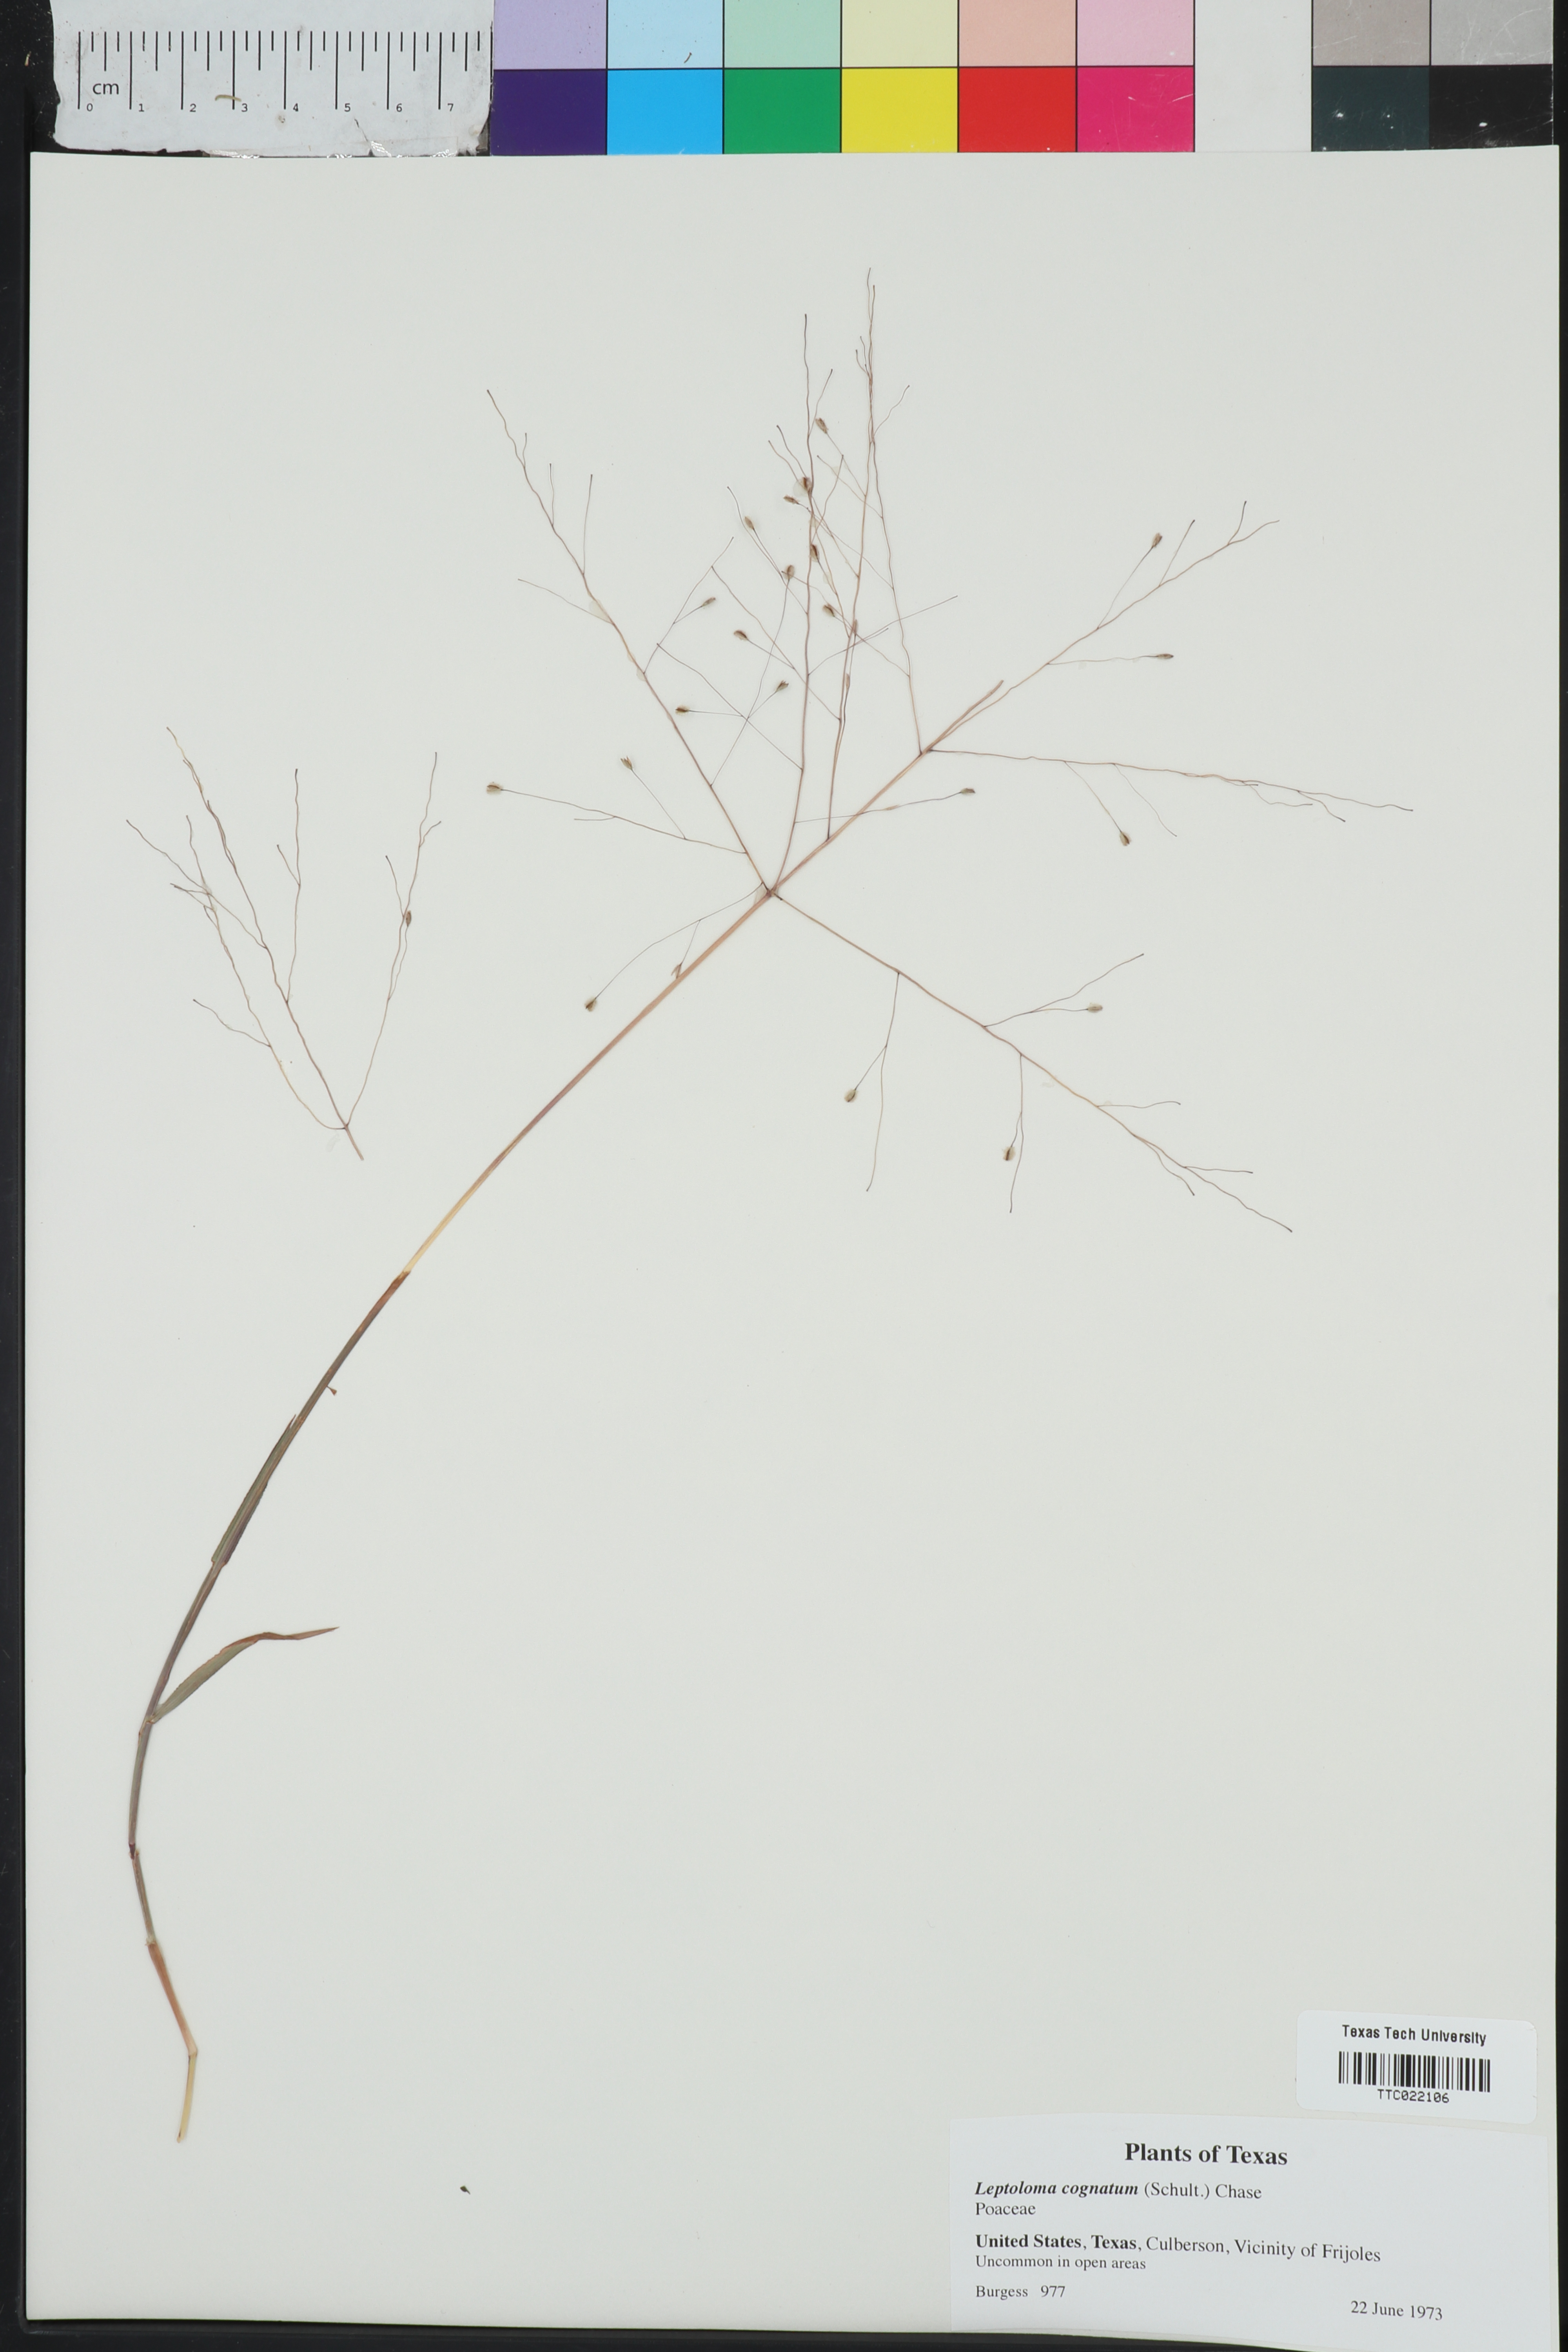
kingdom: Plantae
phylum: Tracheophyta
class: Liliopsida
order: Poales
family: Poaceae
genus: Digitaria
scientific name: Digitaria cognata
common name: Fall witchgrass
